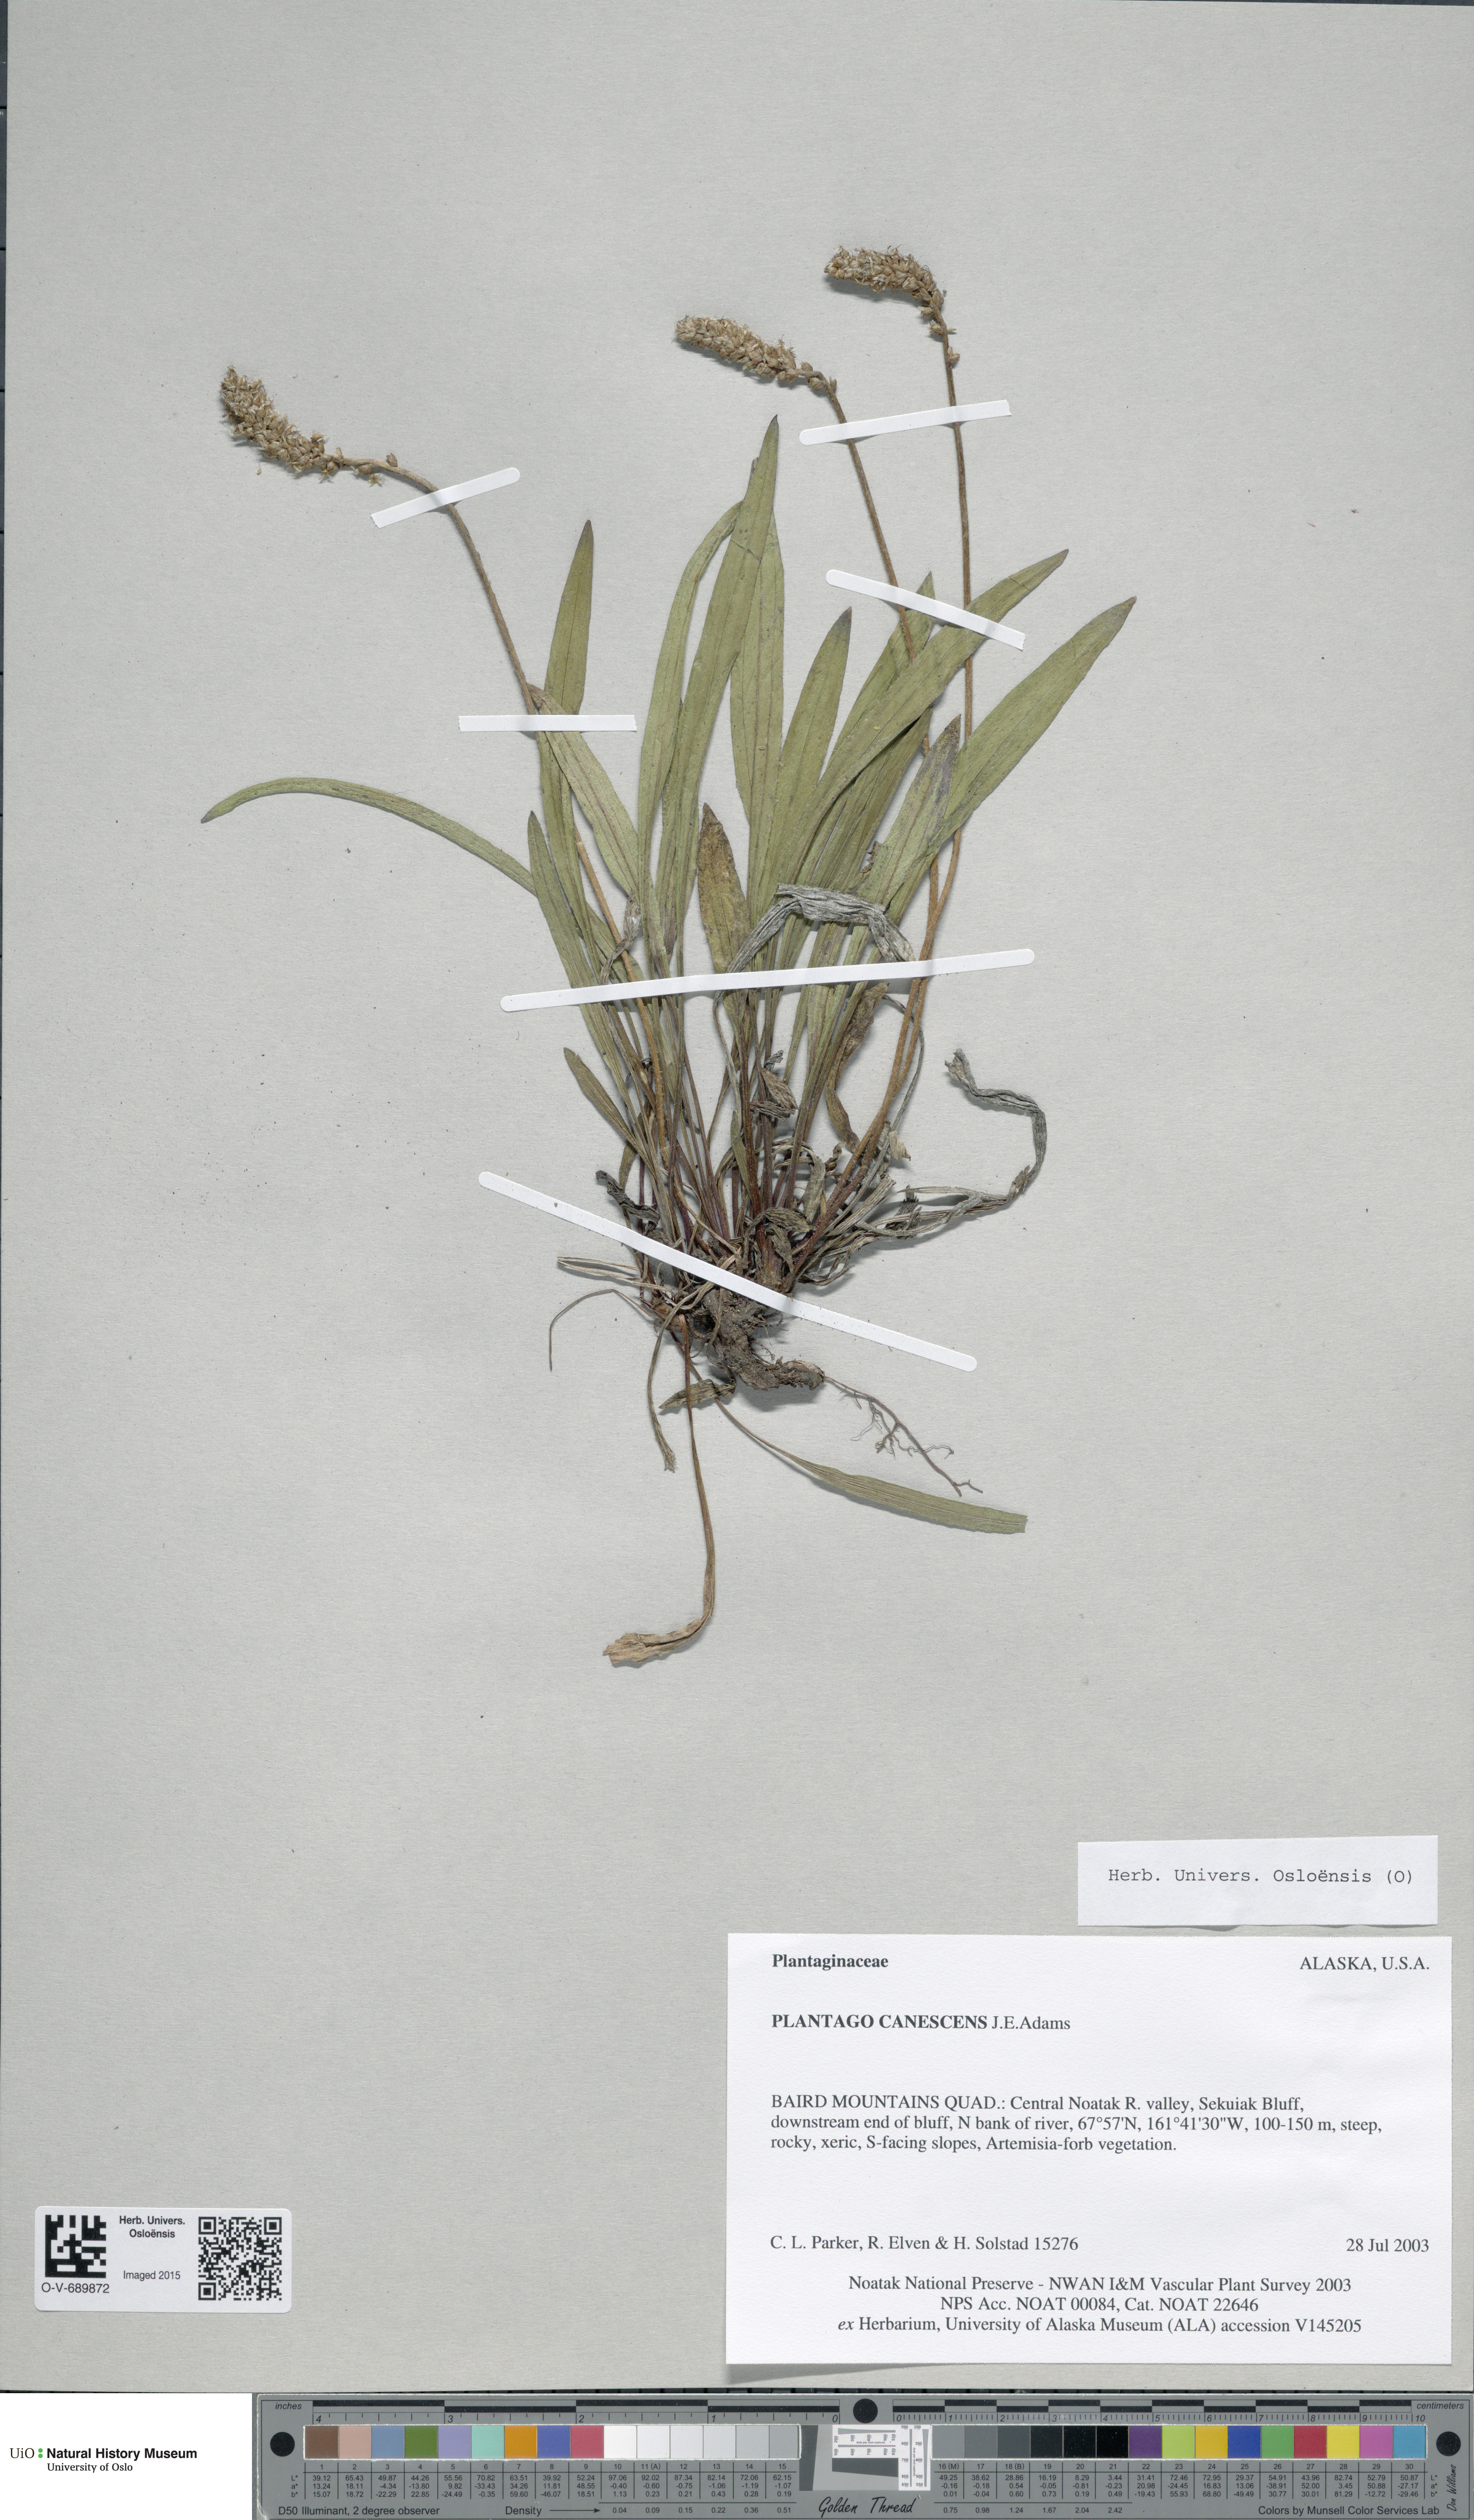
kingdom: Plantae
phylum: Tracheophyta
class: Magnoliopsida
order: Lamiales
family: Plantaginaceae
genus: Plantago
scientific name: Plantago canescens
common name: Siberian plantain
